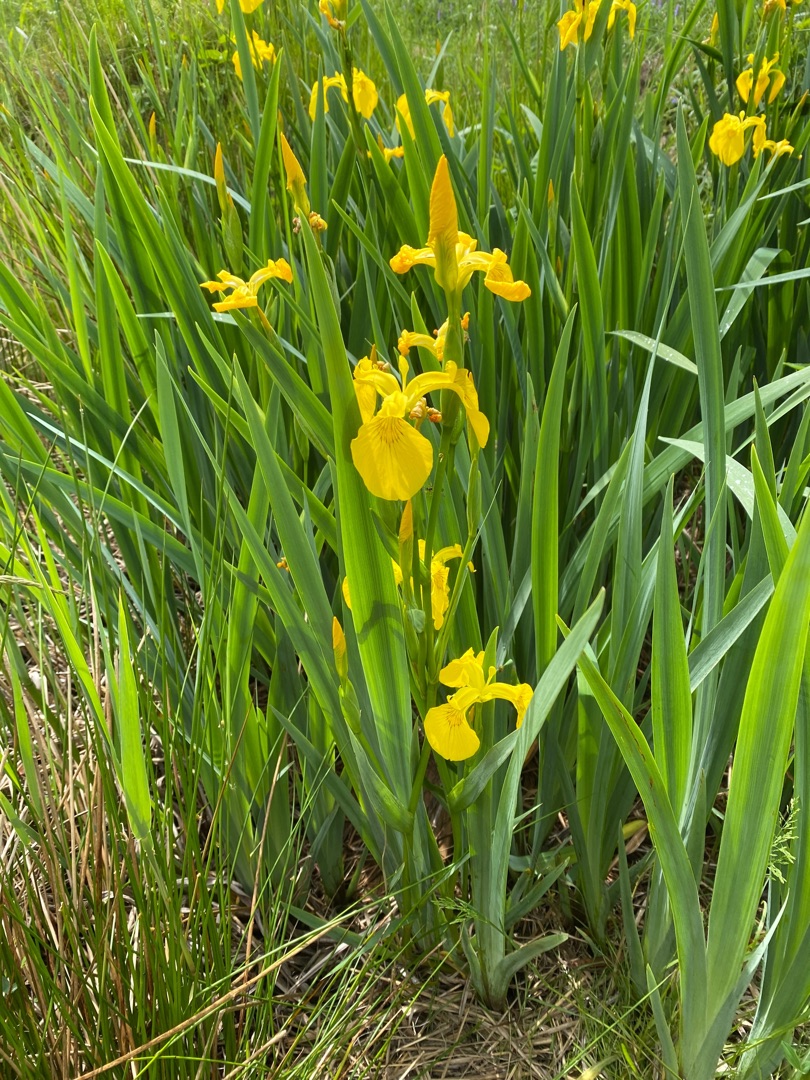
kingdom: Plantae
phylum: Tracheophyta
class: Liliopsida
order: Asparagales
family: Iridaceae
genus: Iris
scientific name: Iris pseudacorus
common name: Gul iris
